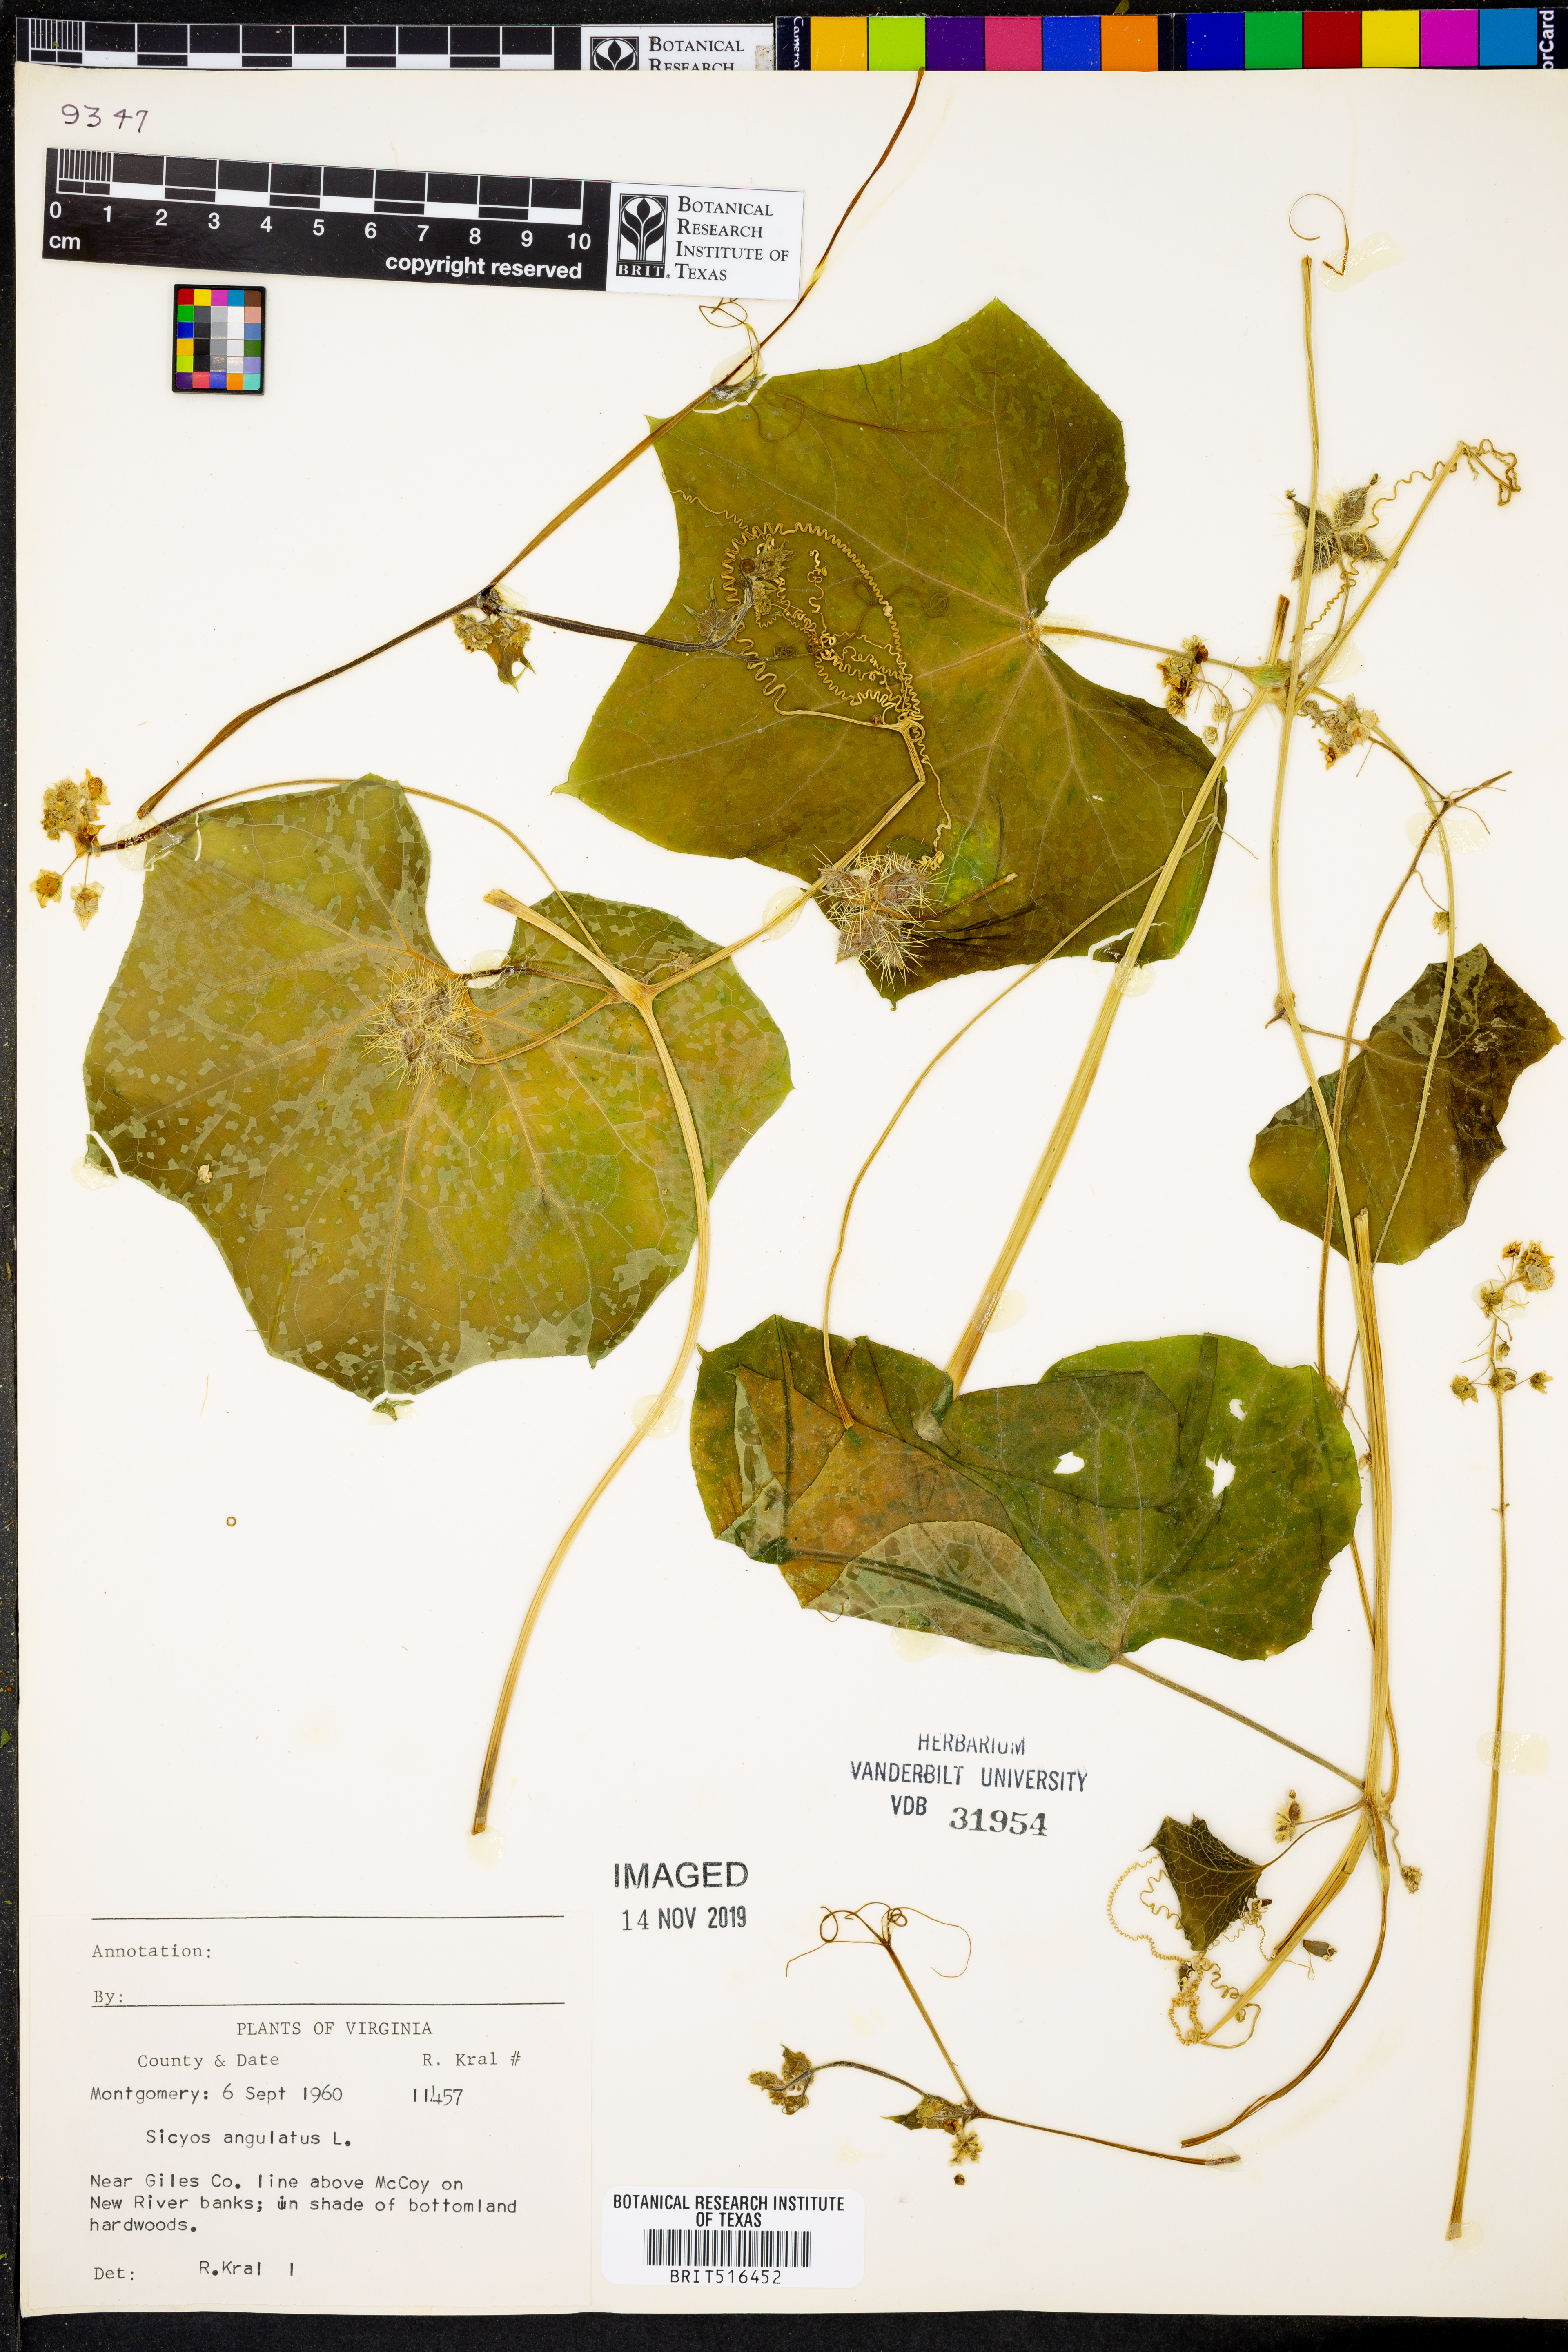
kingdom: Plantae
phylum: Tracheophyta
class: Magnoliopsida
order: Cucurbitales
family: Cucurbitaceae
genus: Sicyos
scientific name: Sicyos angulatus
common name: Angled burr cucumber
